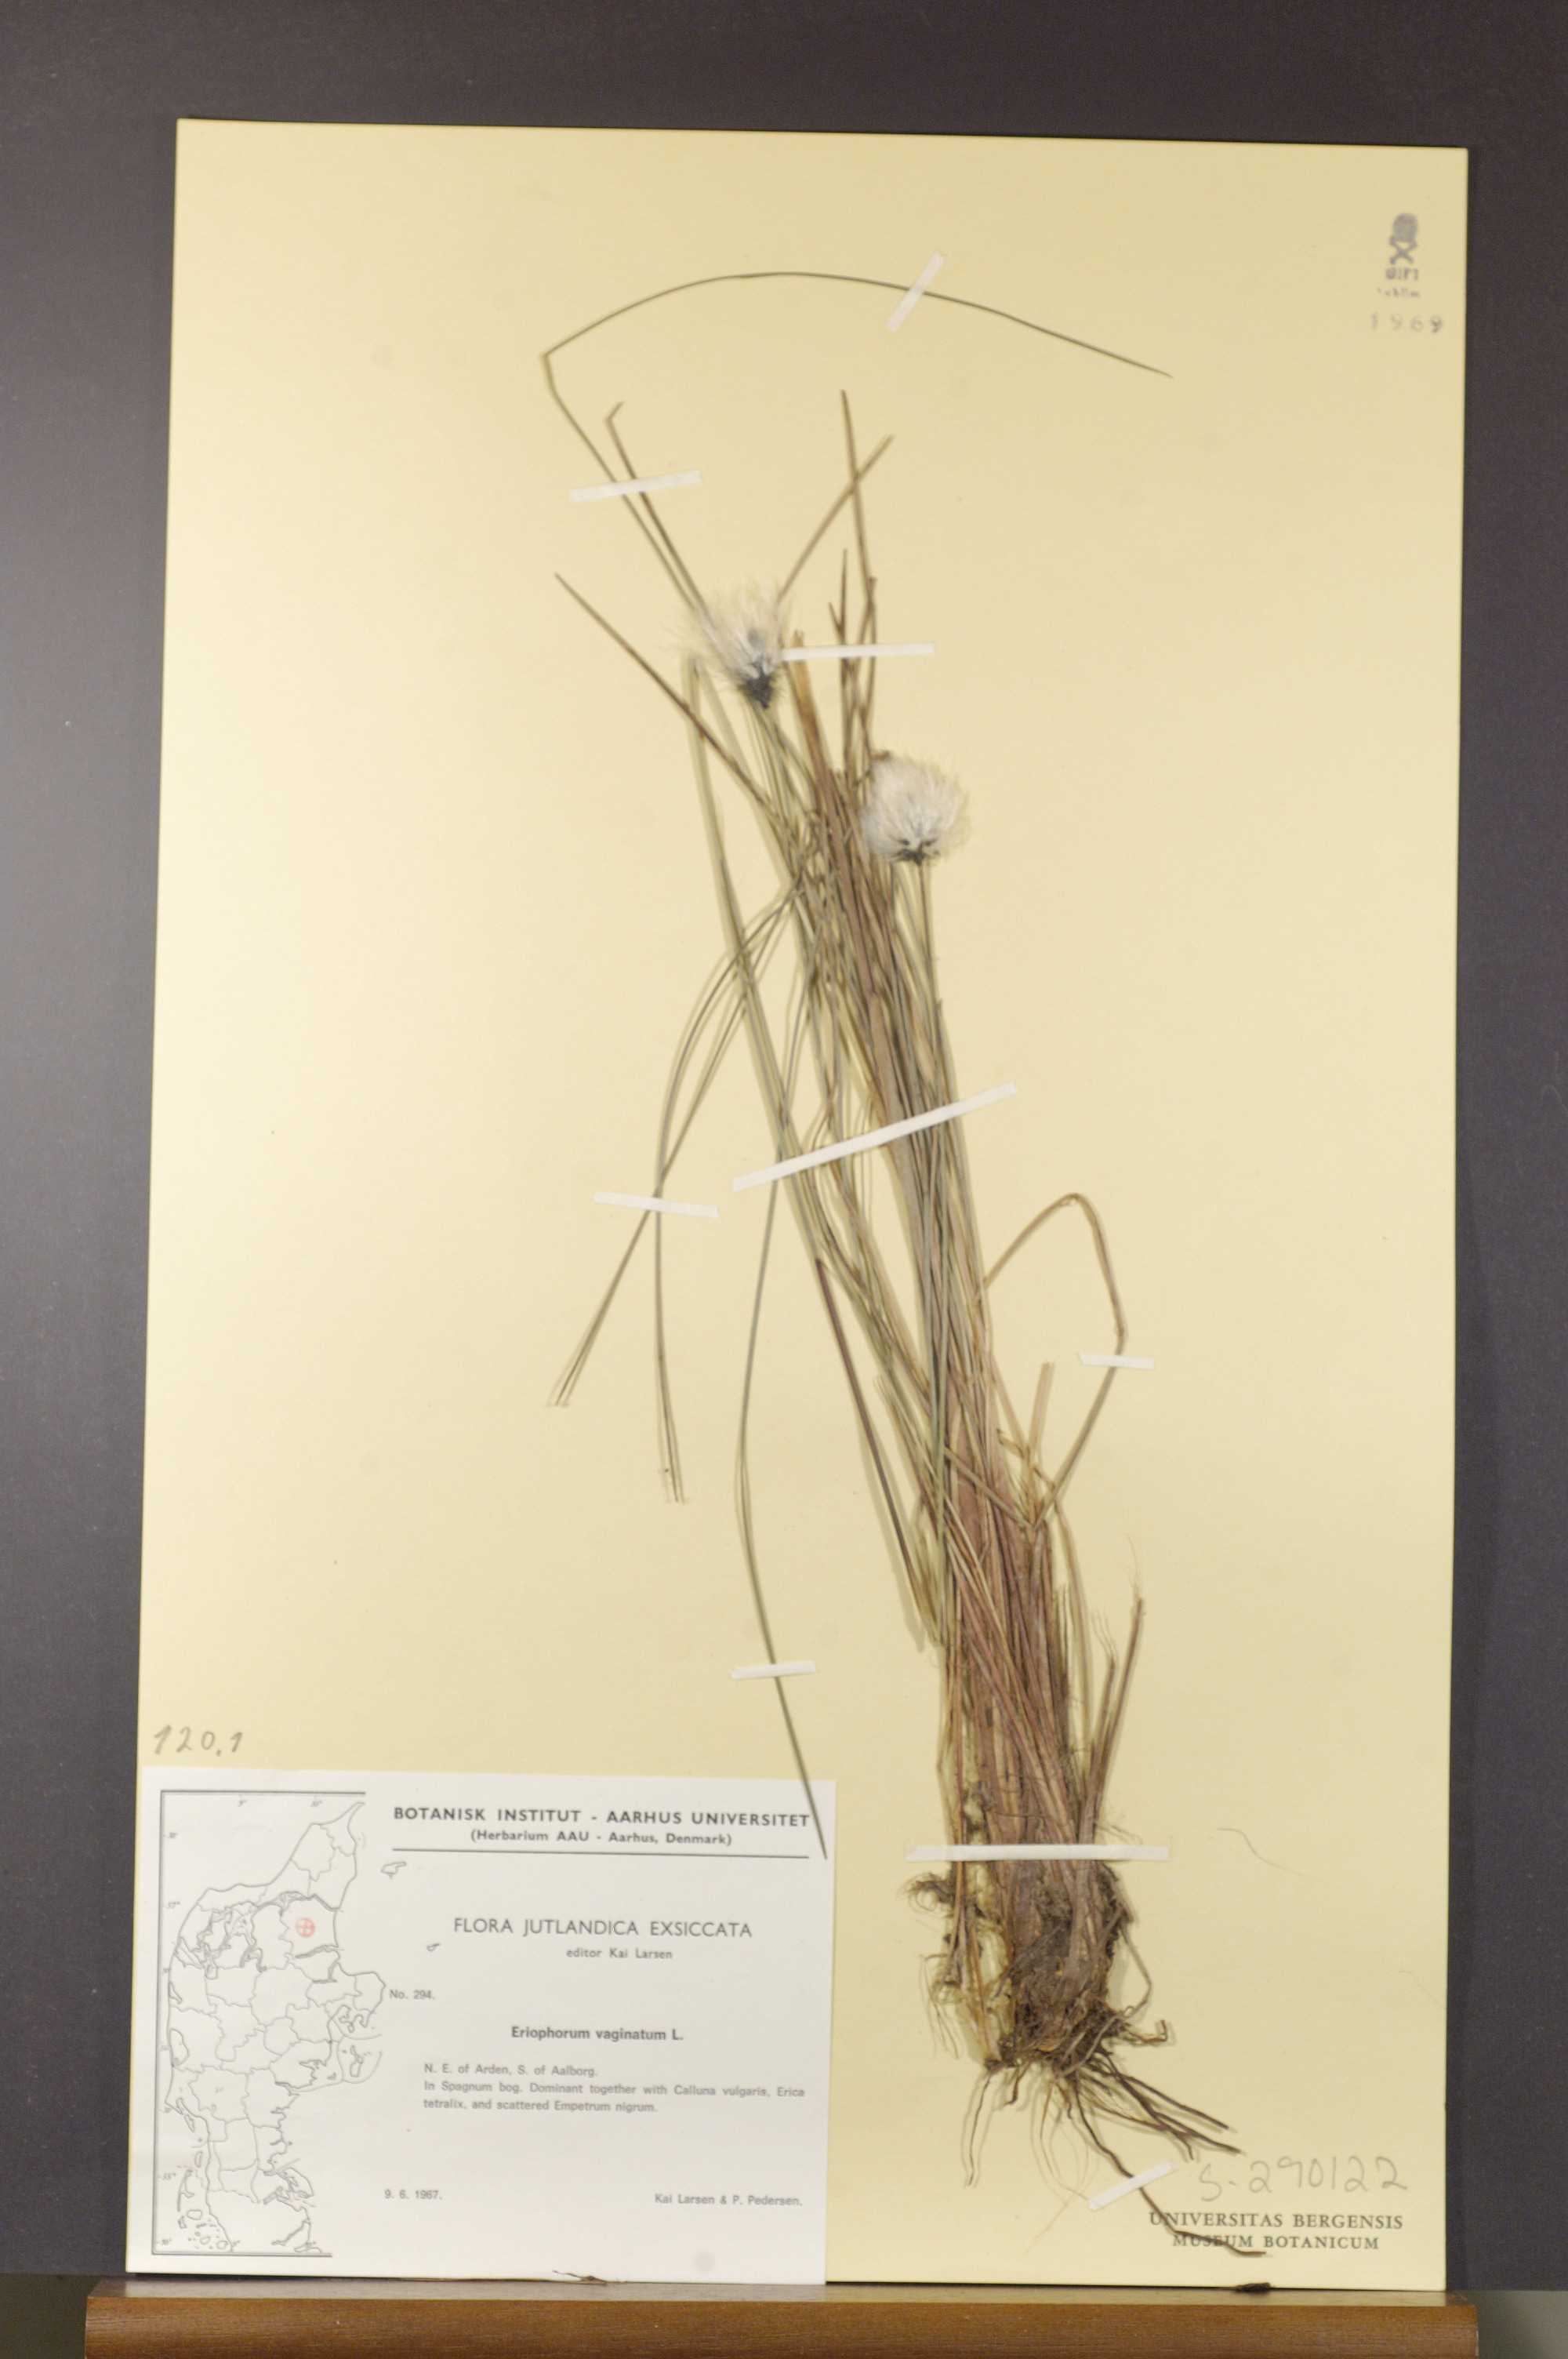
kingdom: Plantae
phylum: Tracheophyta
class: Liliopsida
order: Poales
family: Cyperaceae
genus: Eriophorum
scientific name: Eriophorum vaginatum
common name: Hare's-tail cottongrass
